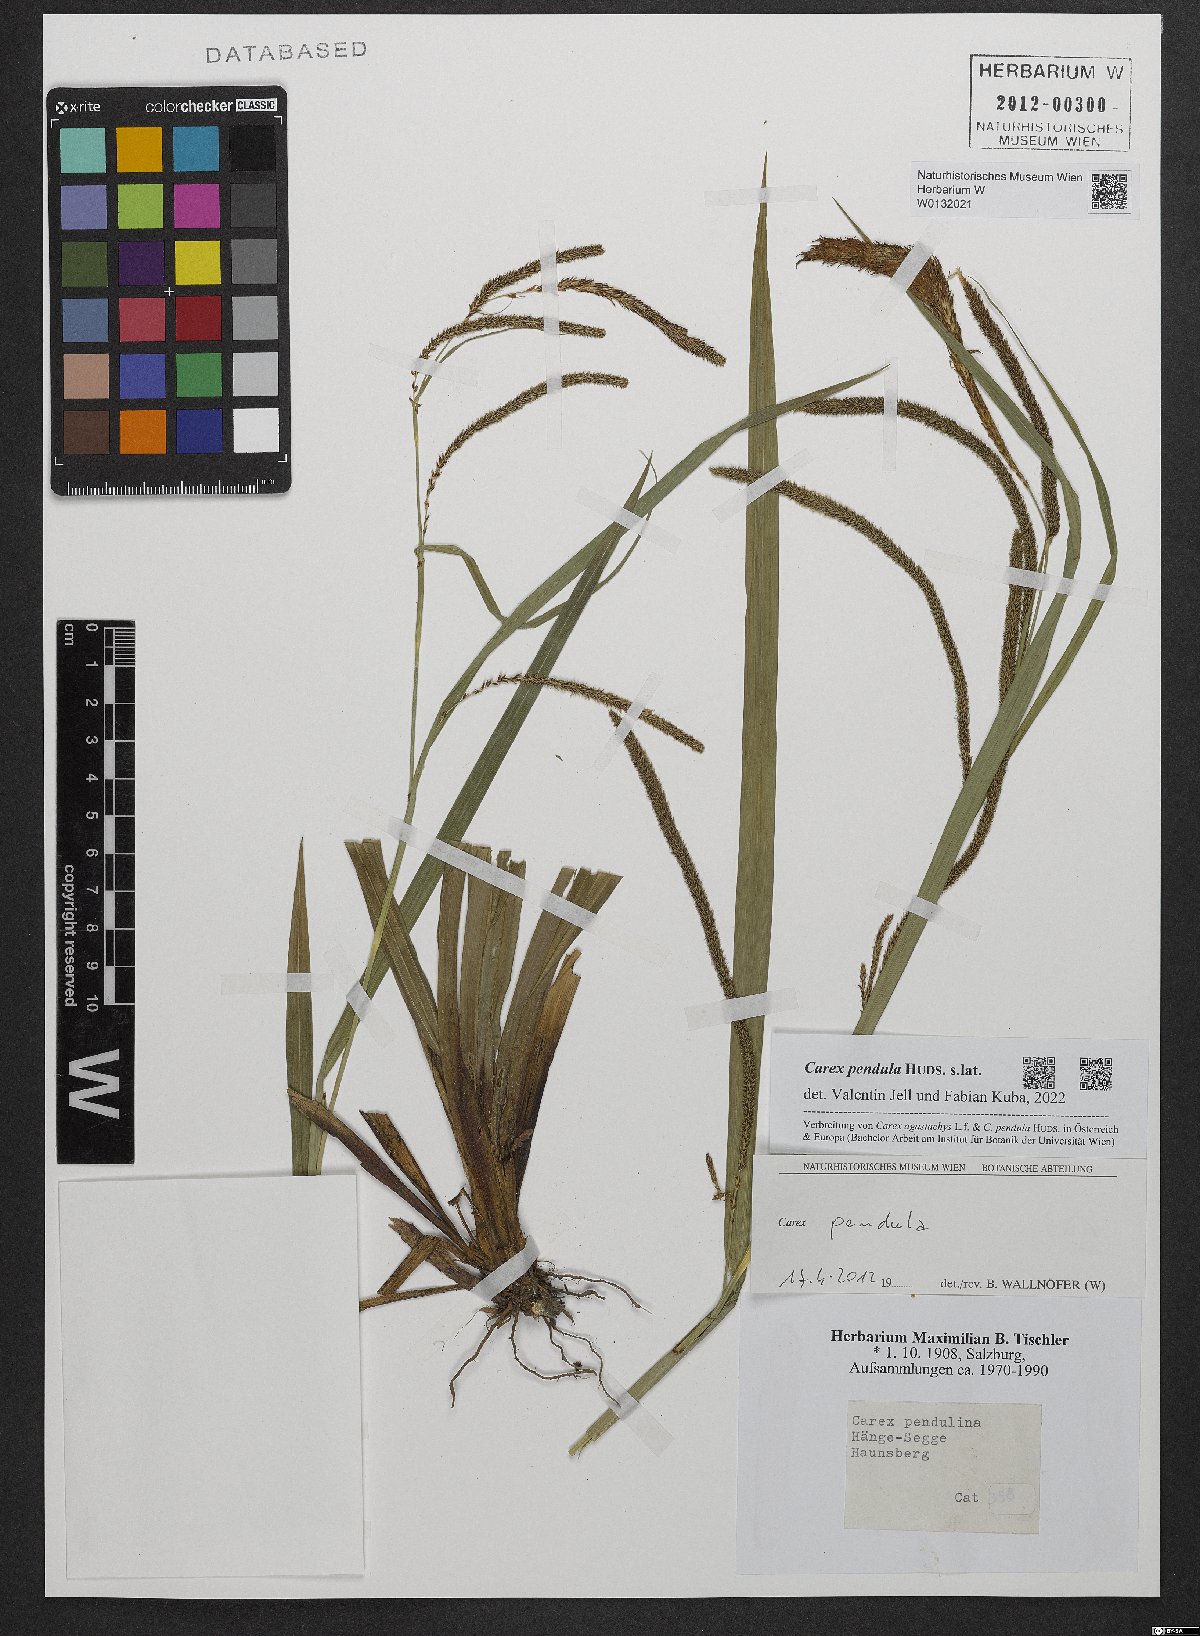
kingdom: Plantae
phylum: Tracheophyta
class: Liliopsida
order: Poales
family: Cyperaceae
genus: Carex
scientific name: Carex pendula
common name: Pendulous sedge
